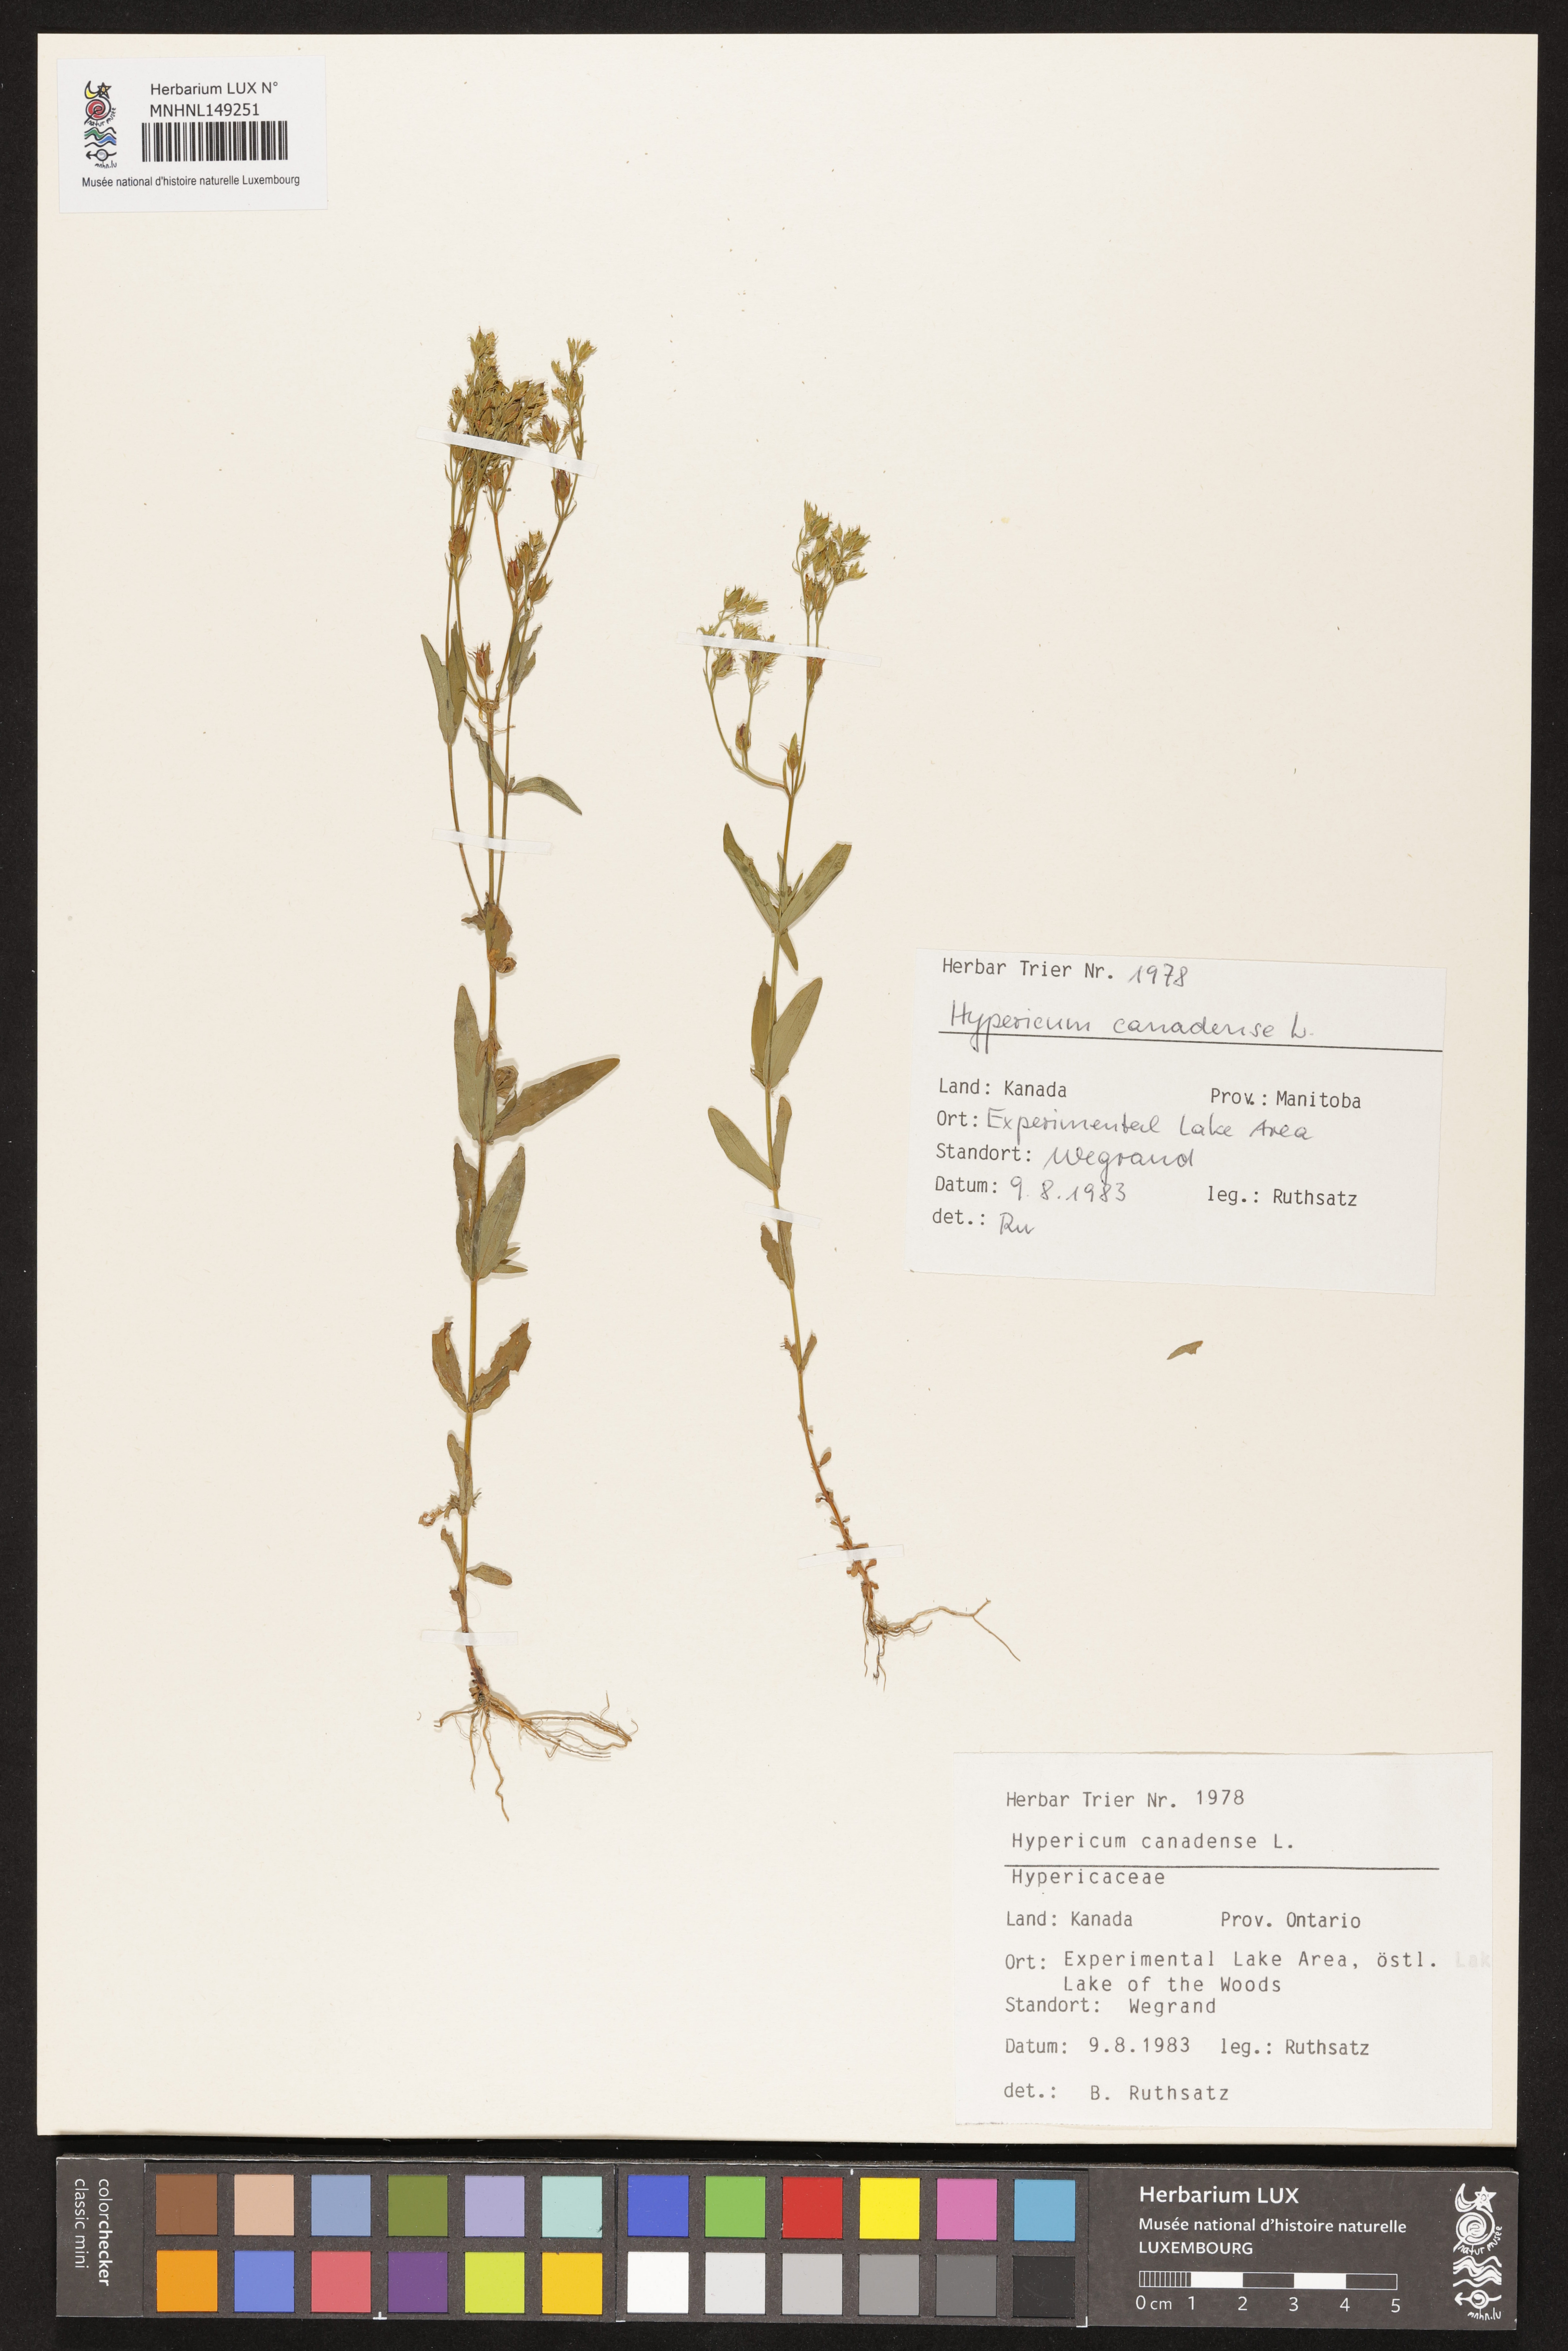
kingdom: Plantae
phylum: Tracheophyta
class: Magnoliopsida
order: Malpighiales
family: Hypericaceae
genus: Hypericum
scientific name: Hypericum canadense
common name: Irish st. john's-wort
